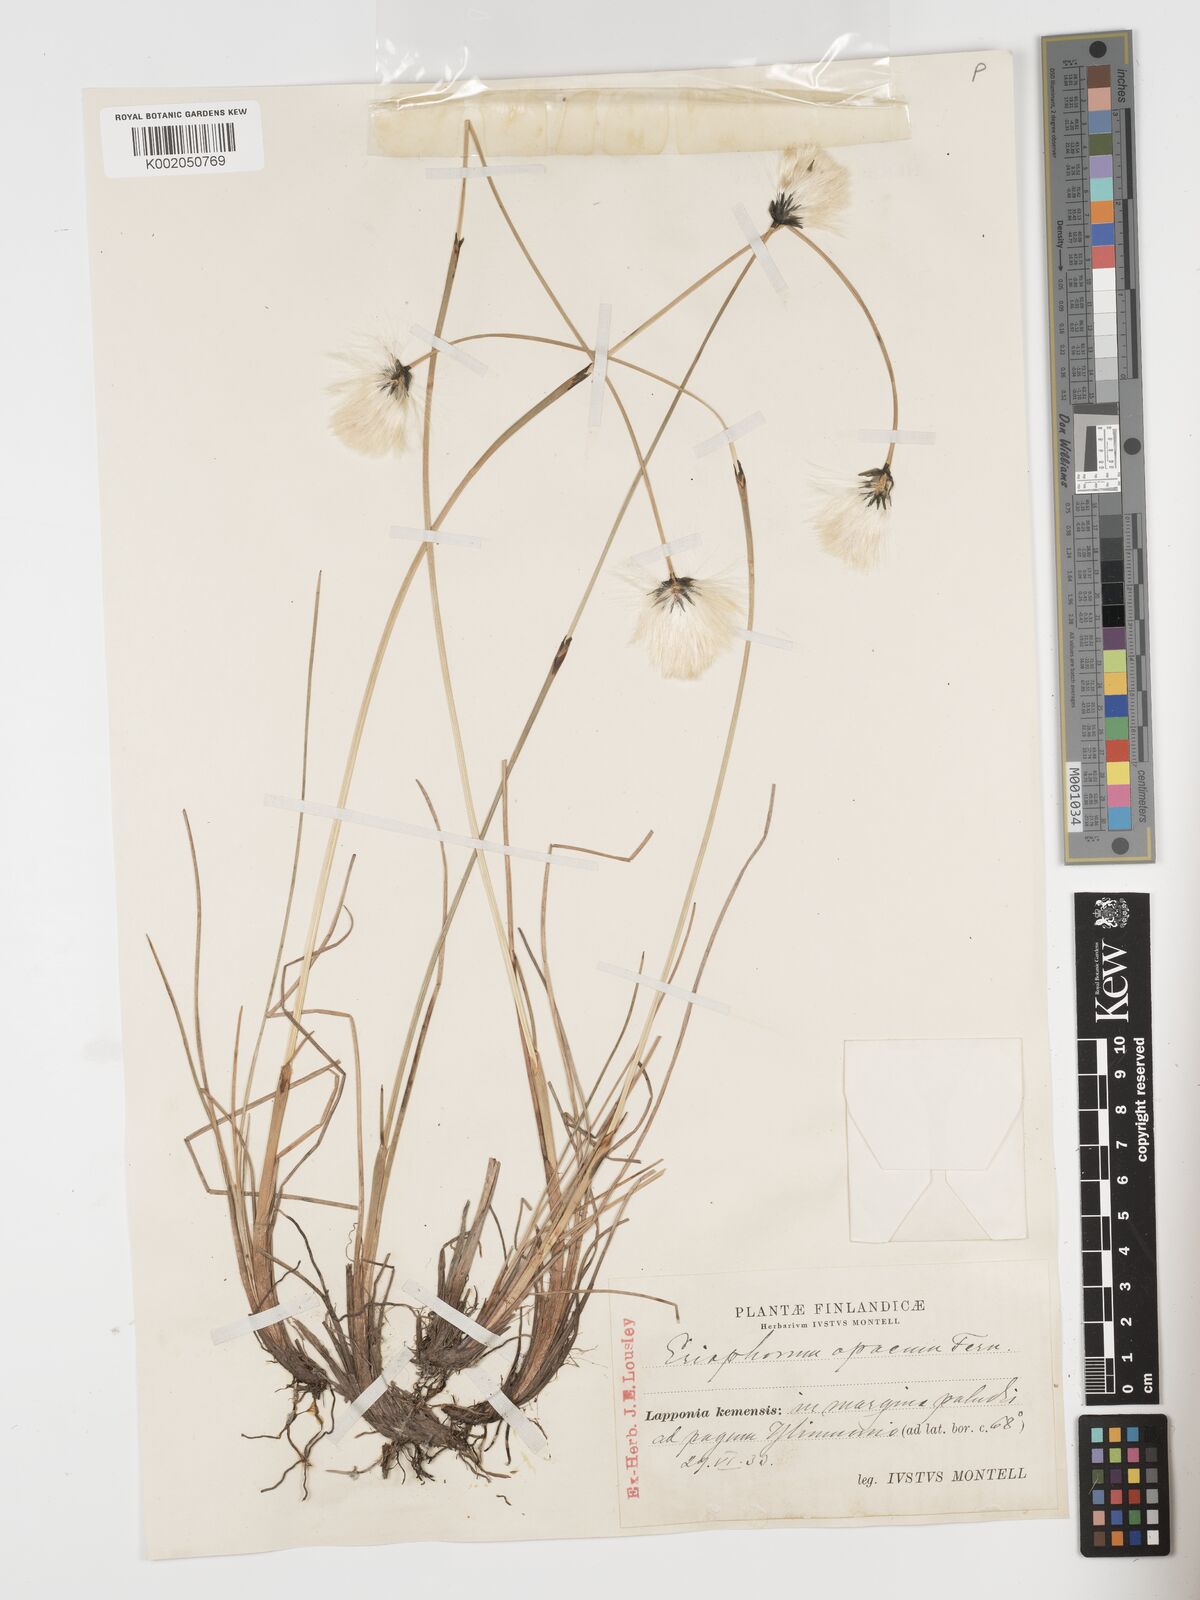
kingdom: Plantae
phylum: Tracheophyta
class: Liliopsida
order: Poales
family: Cyperaceae
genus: Eriophorum
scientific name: Eriophorum brachyantherum
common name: Closed-sheathed cottongrass
